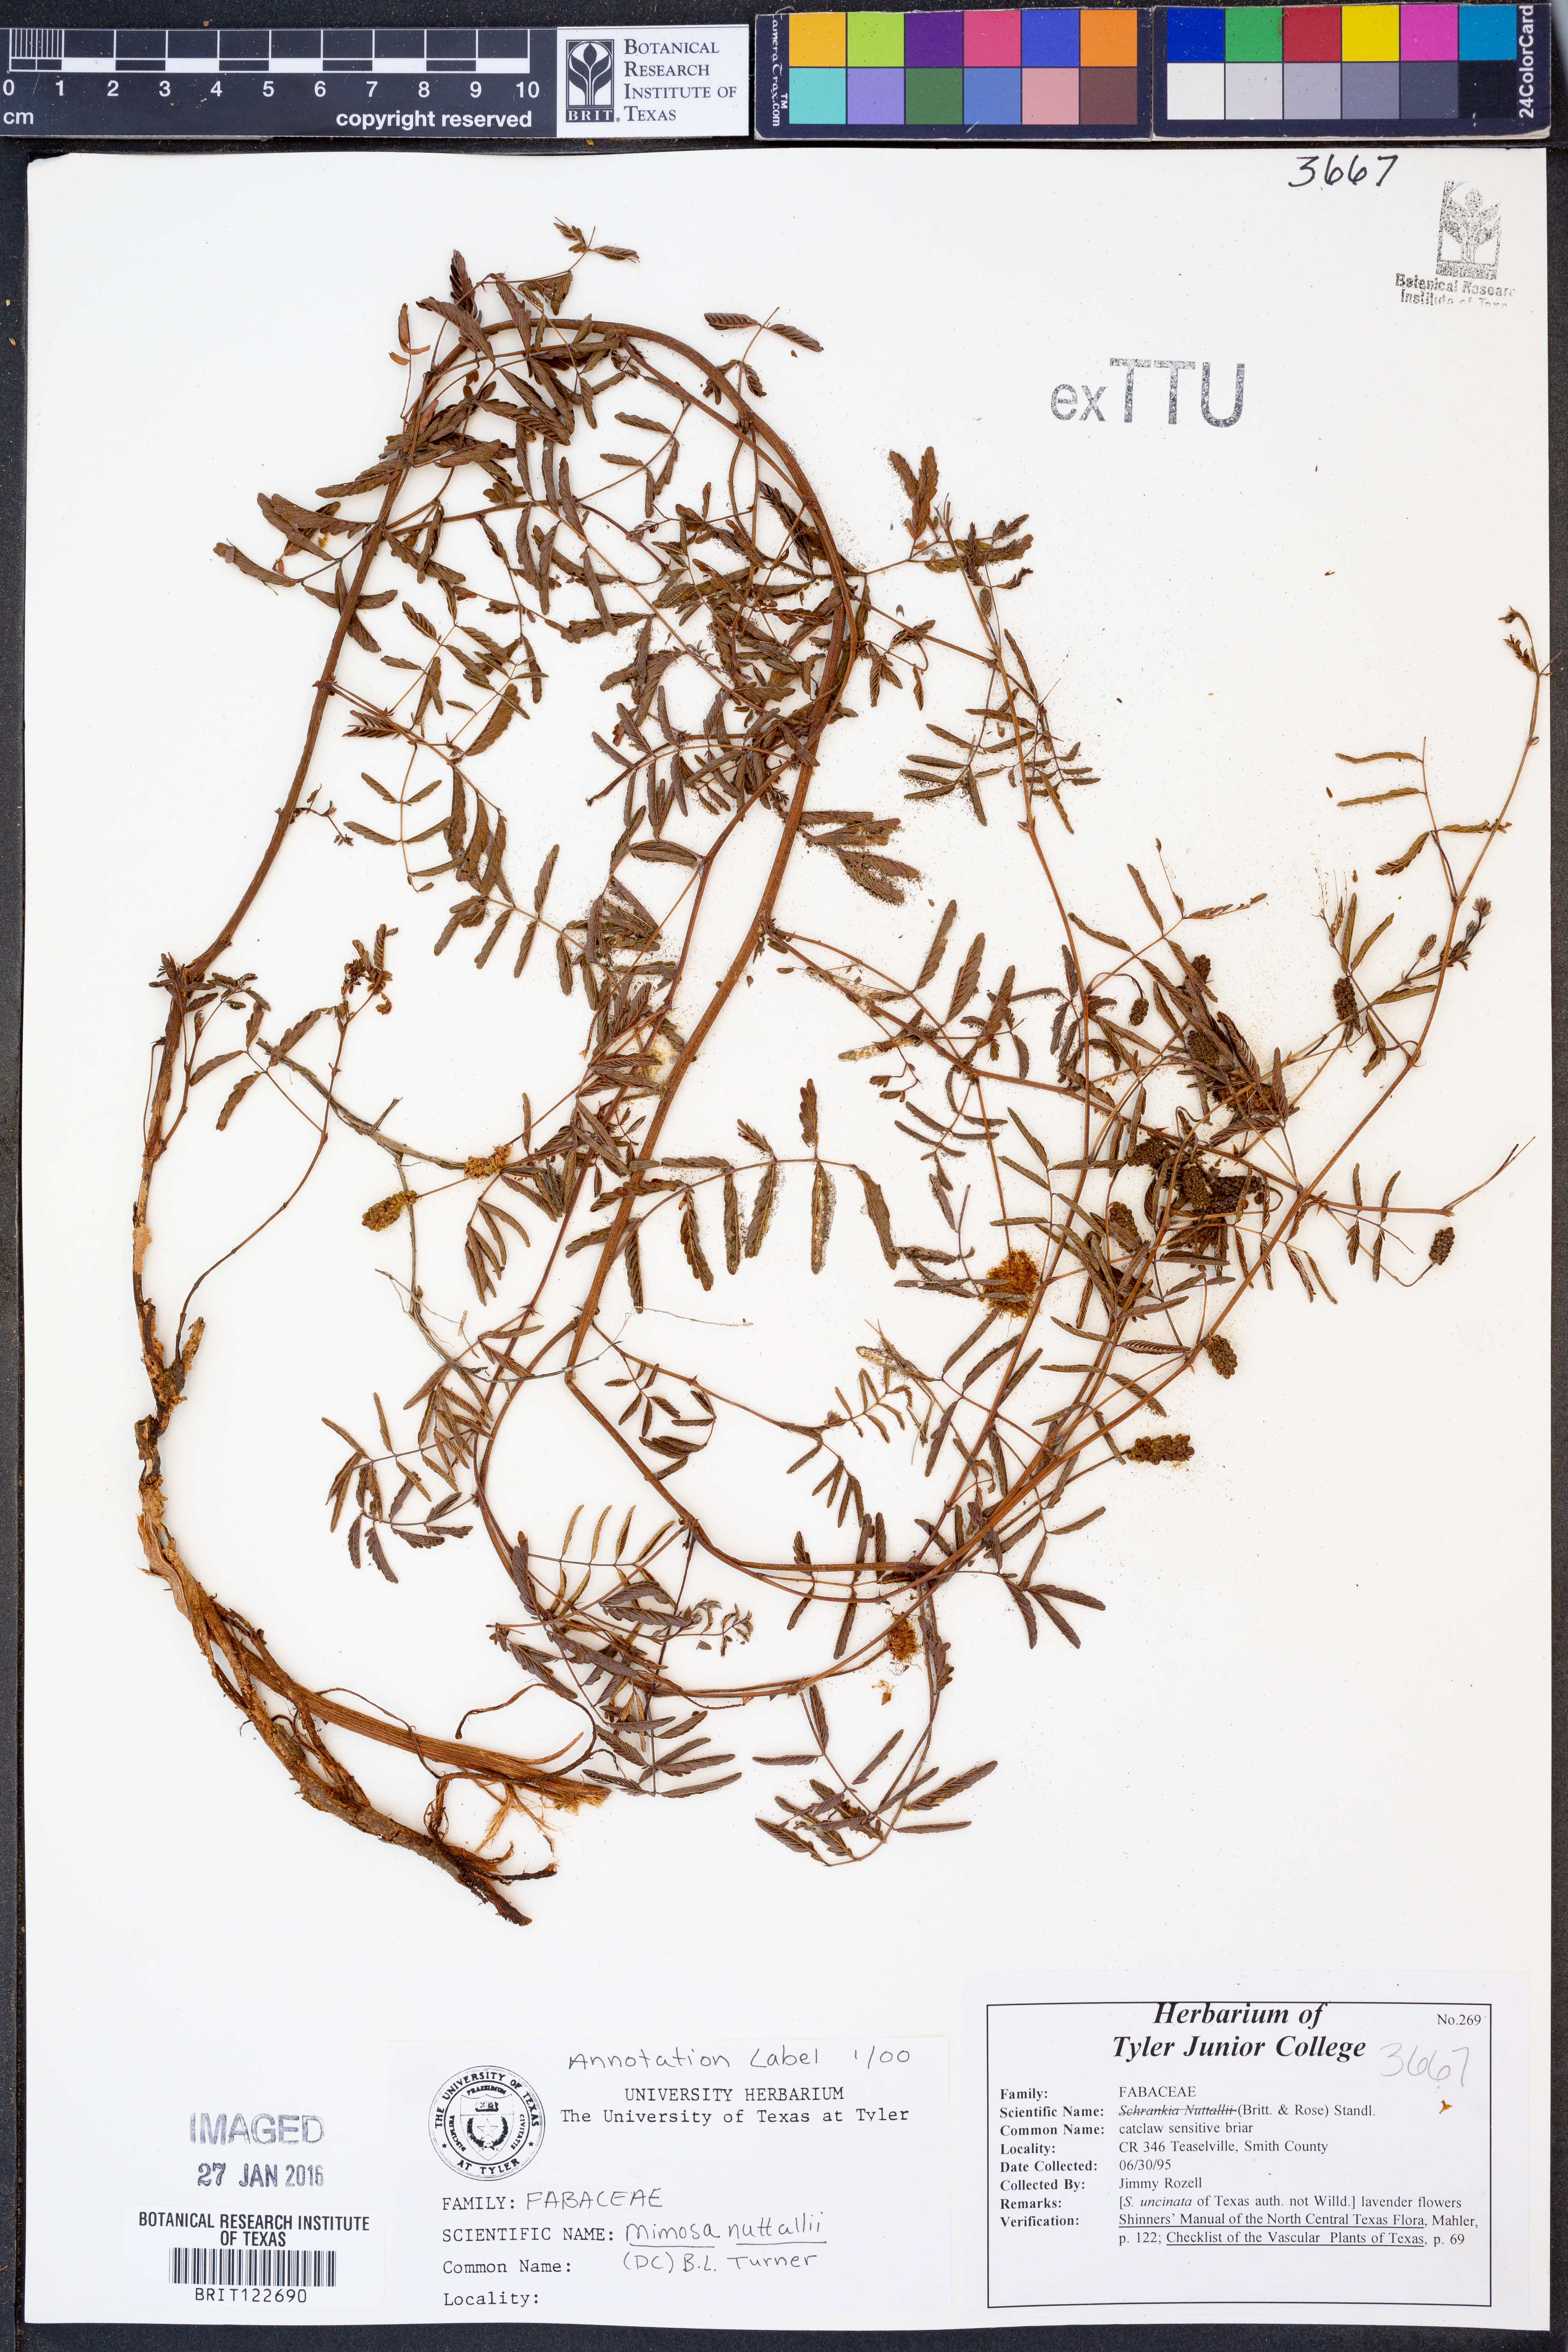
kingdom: Plantae
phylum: Tracheophyta
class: Magnoliopsida
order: Fabales
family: Fabaceae
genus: Mimosa
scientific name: Mimosa quadrivalvis
